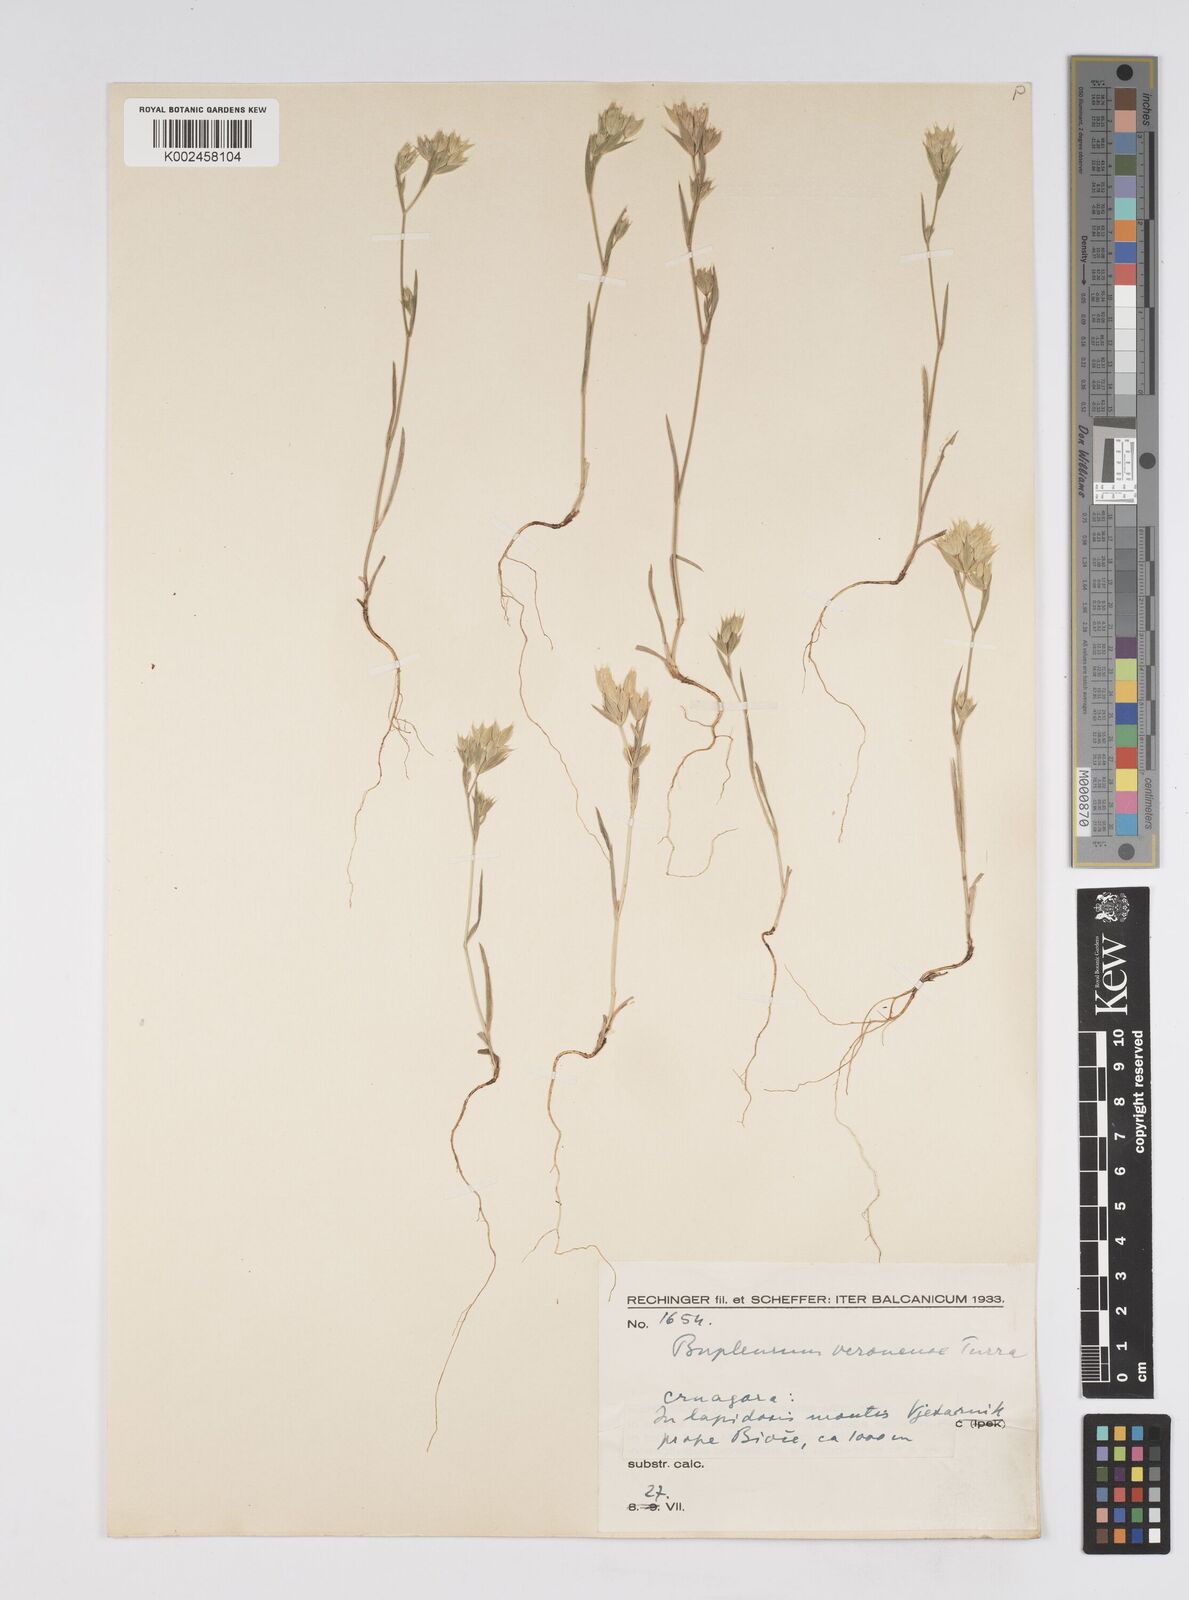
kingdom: Plantae
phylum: Tracheophyta
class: Magnoliopsida
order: Apiales
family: Apiaceae
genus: Bupleurum
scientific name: Bupleurum baldense
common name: Small hare's-ear
